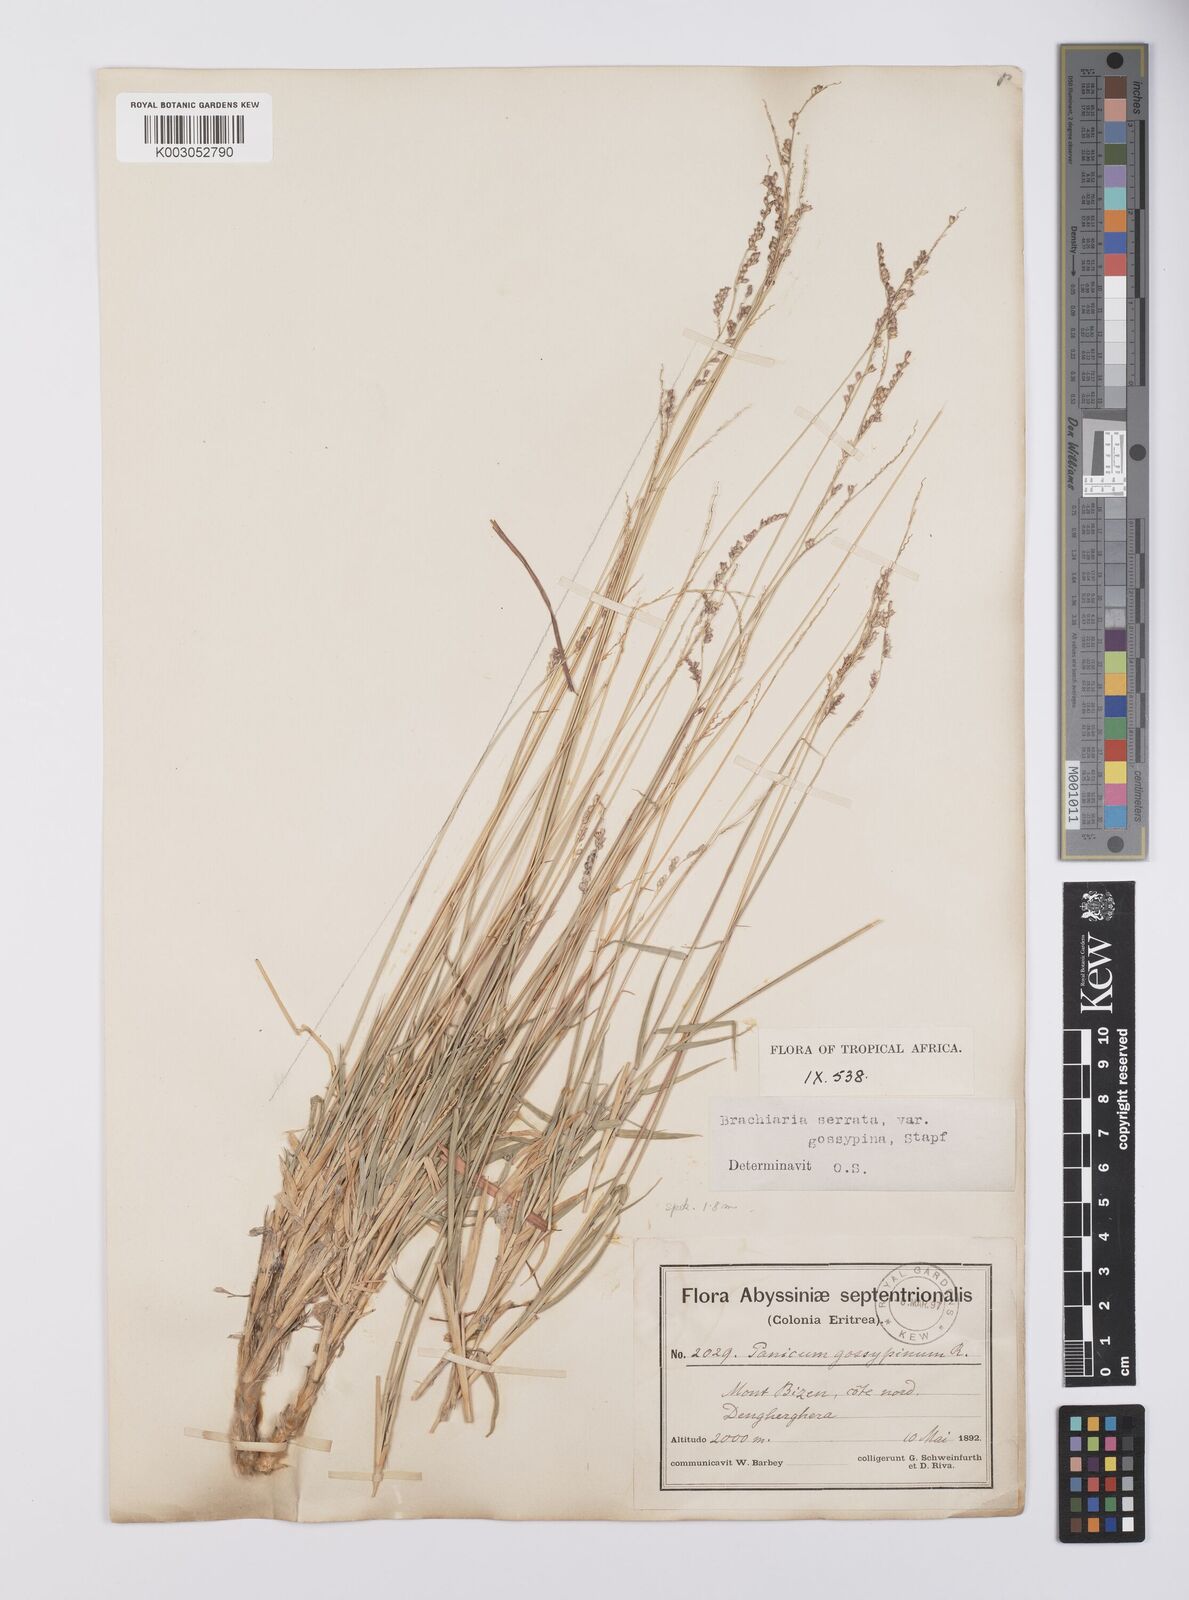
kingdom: Plantae
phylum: Tracheophyta
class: Liliopsida
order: Poales
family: Poaceae
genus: Urochloa
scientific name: Urochloa serrata
